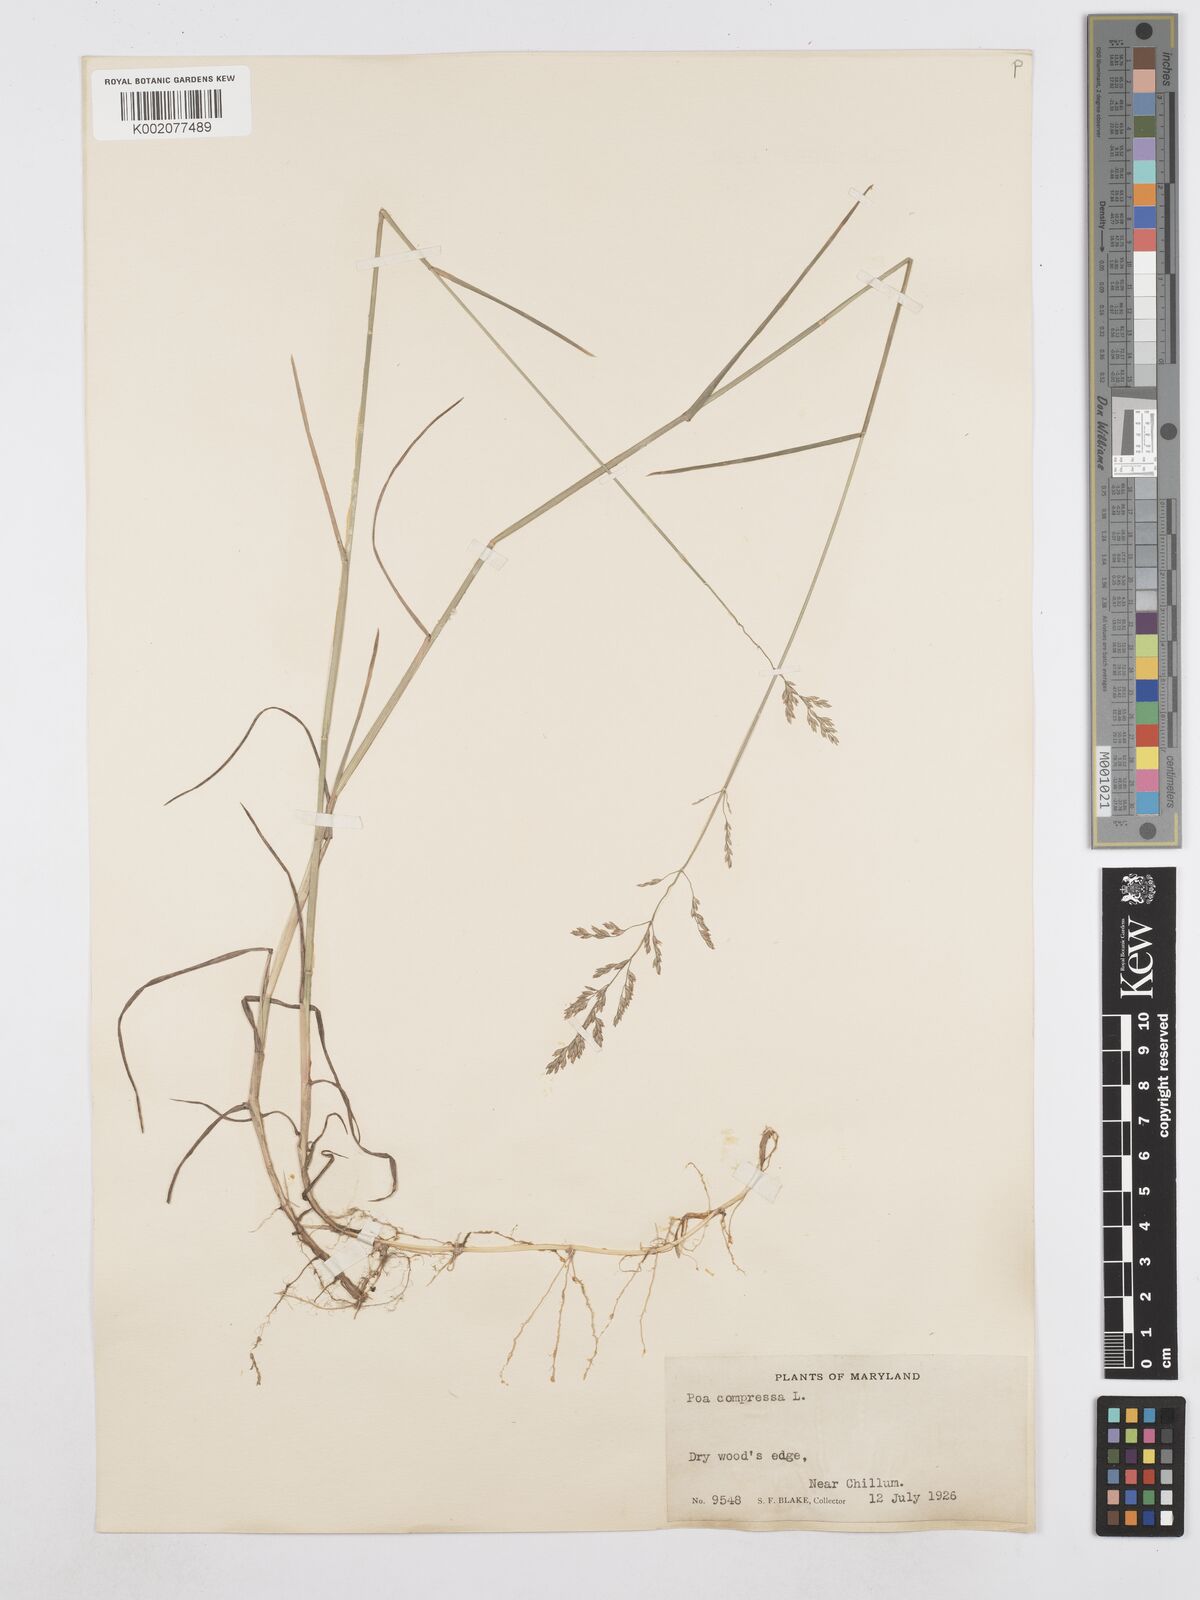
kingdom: Plantae
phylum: Tracheophyta
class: Liliopsida
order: Poales
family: Poaceae
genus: Poa
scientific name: Poa compressa
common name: Canada bluegrass
